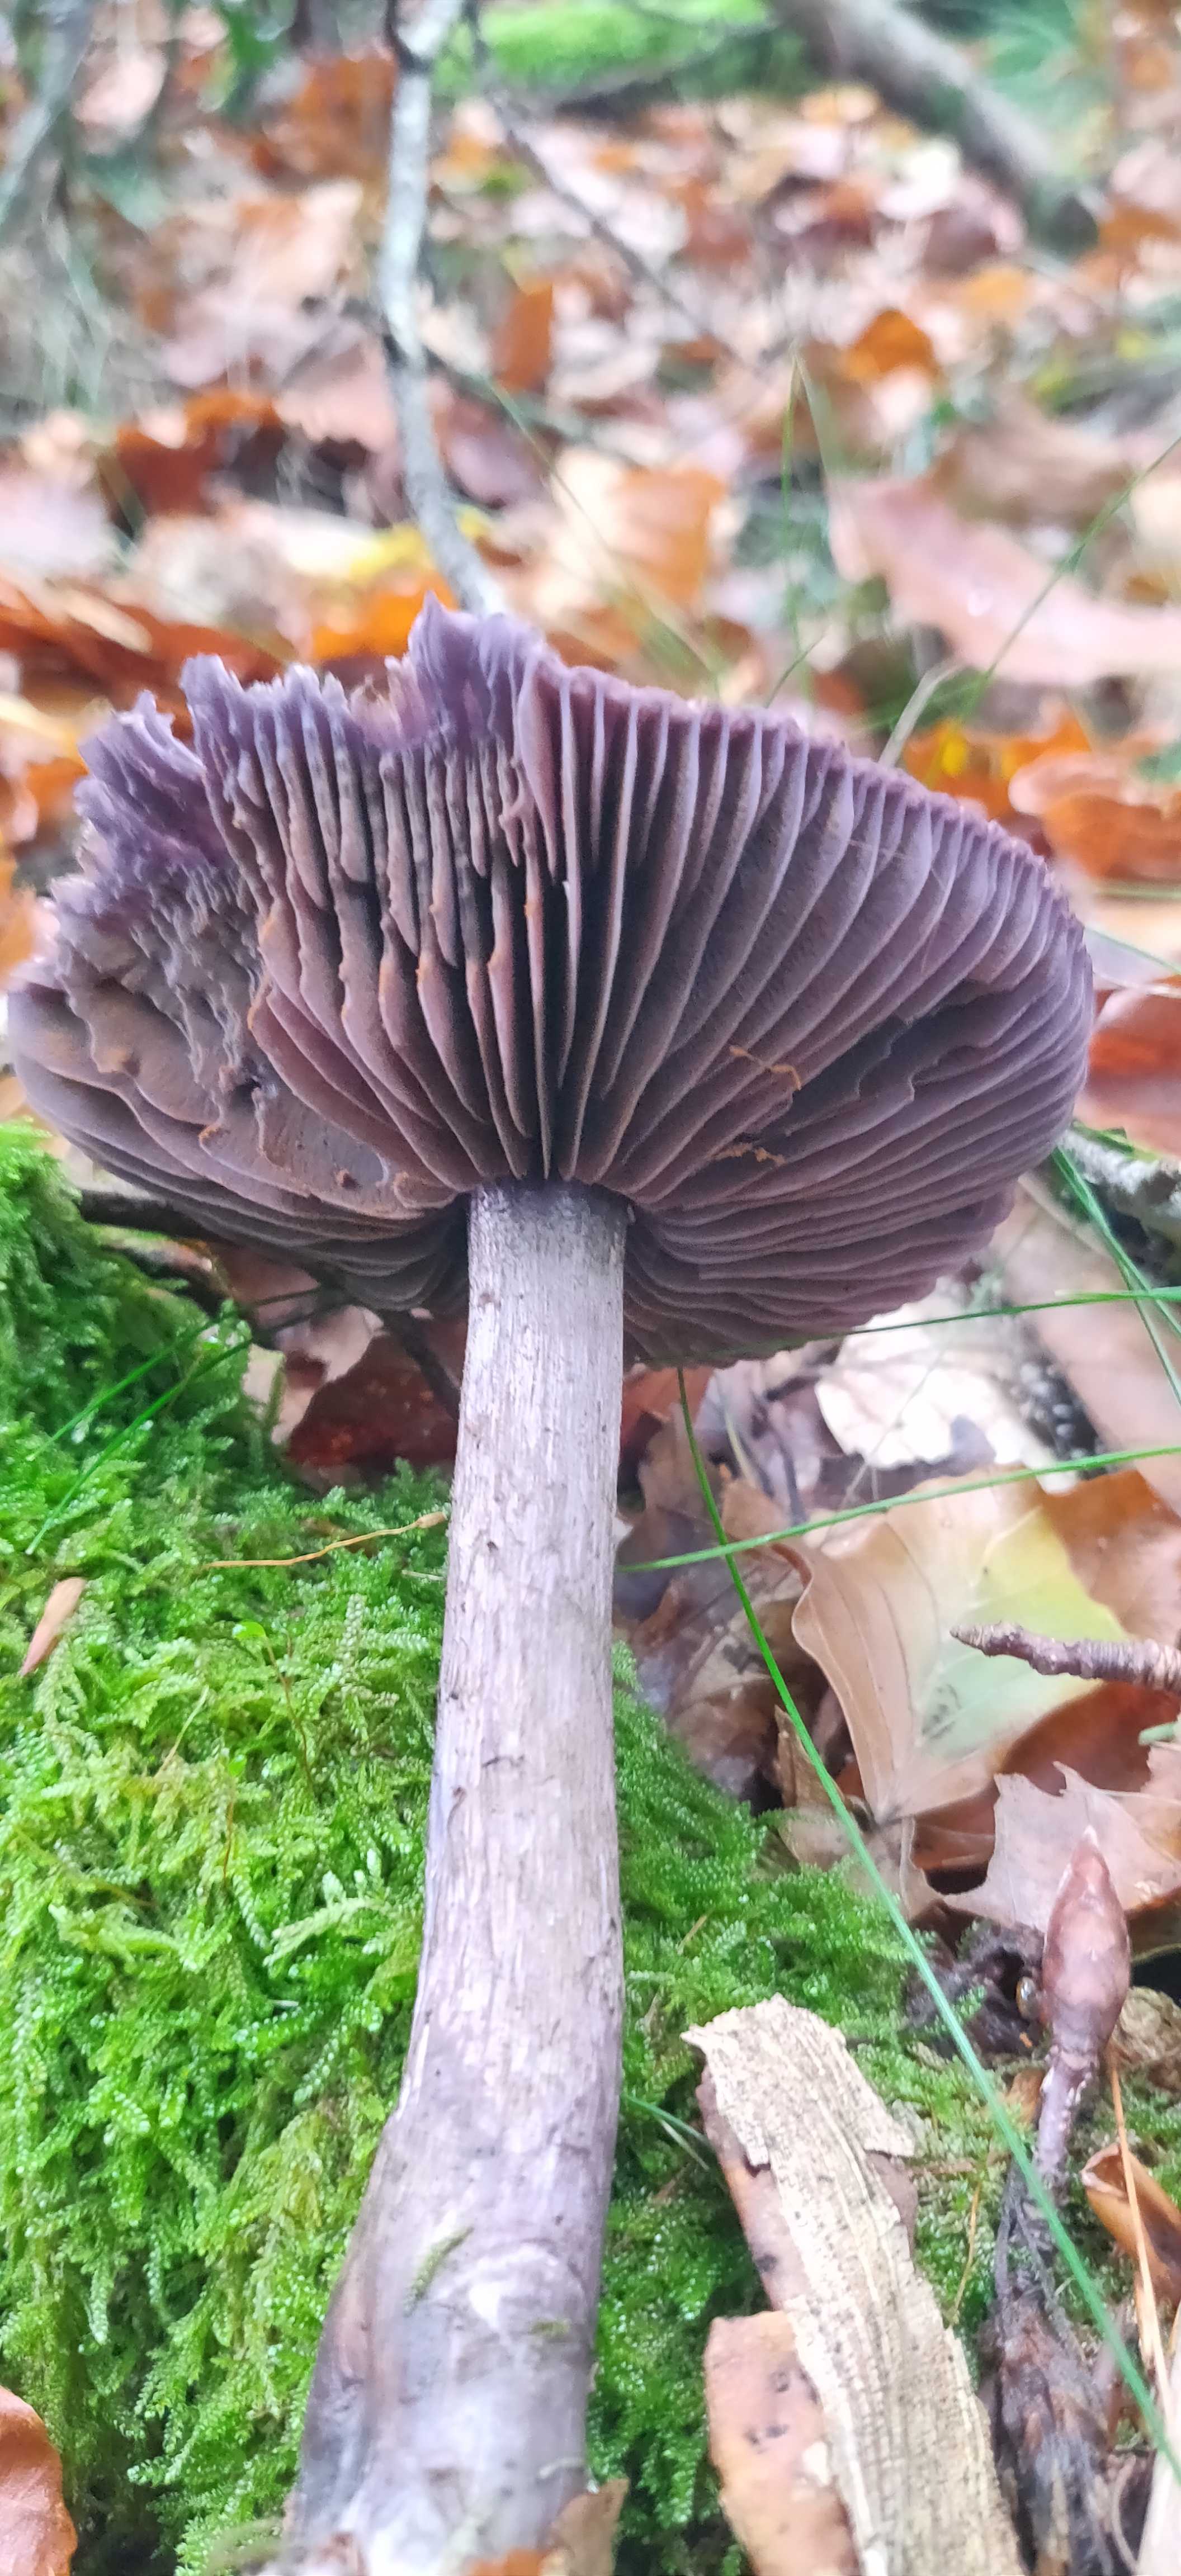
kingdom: Fungi
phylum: Basidiomycota
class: Agaricomycetes
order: Agaricales
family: Cortinariaceae
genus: Cortinarius
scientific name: Cortinarius violaceus
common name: mørkviolet slørhat
